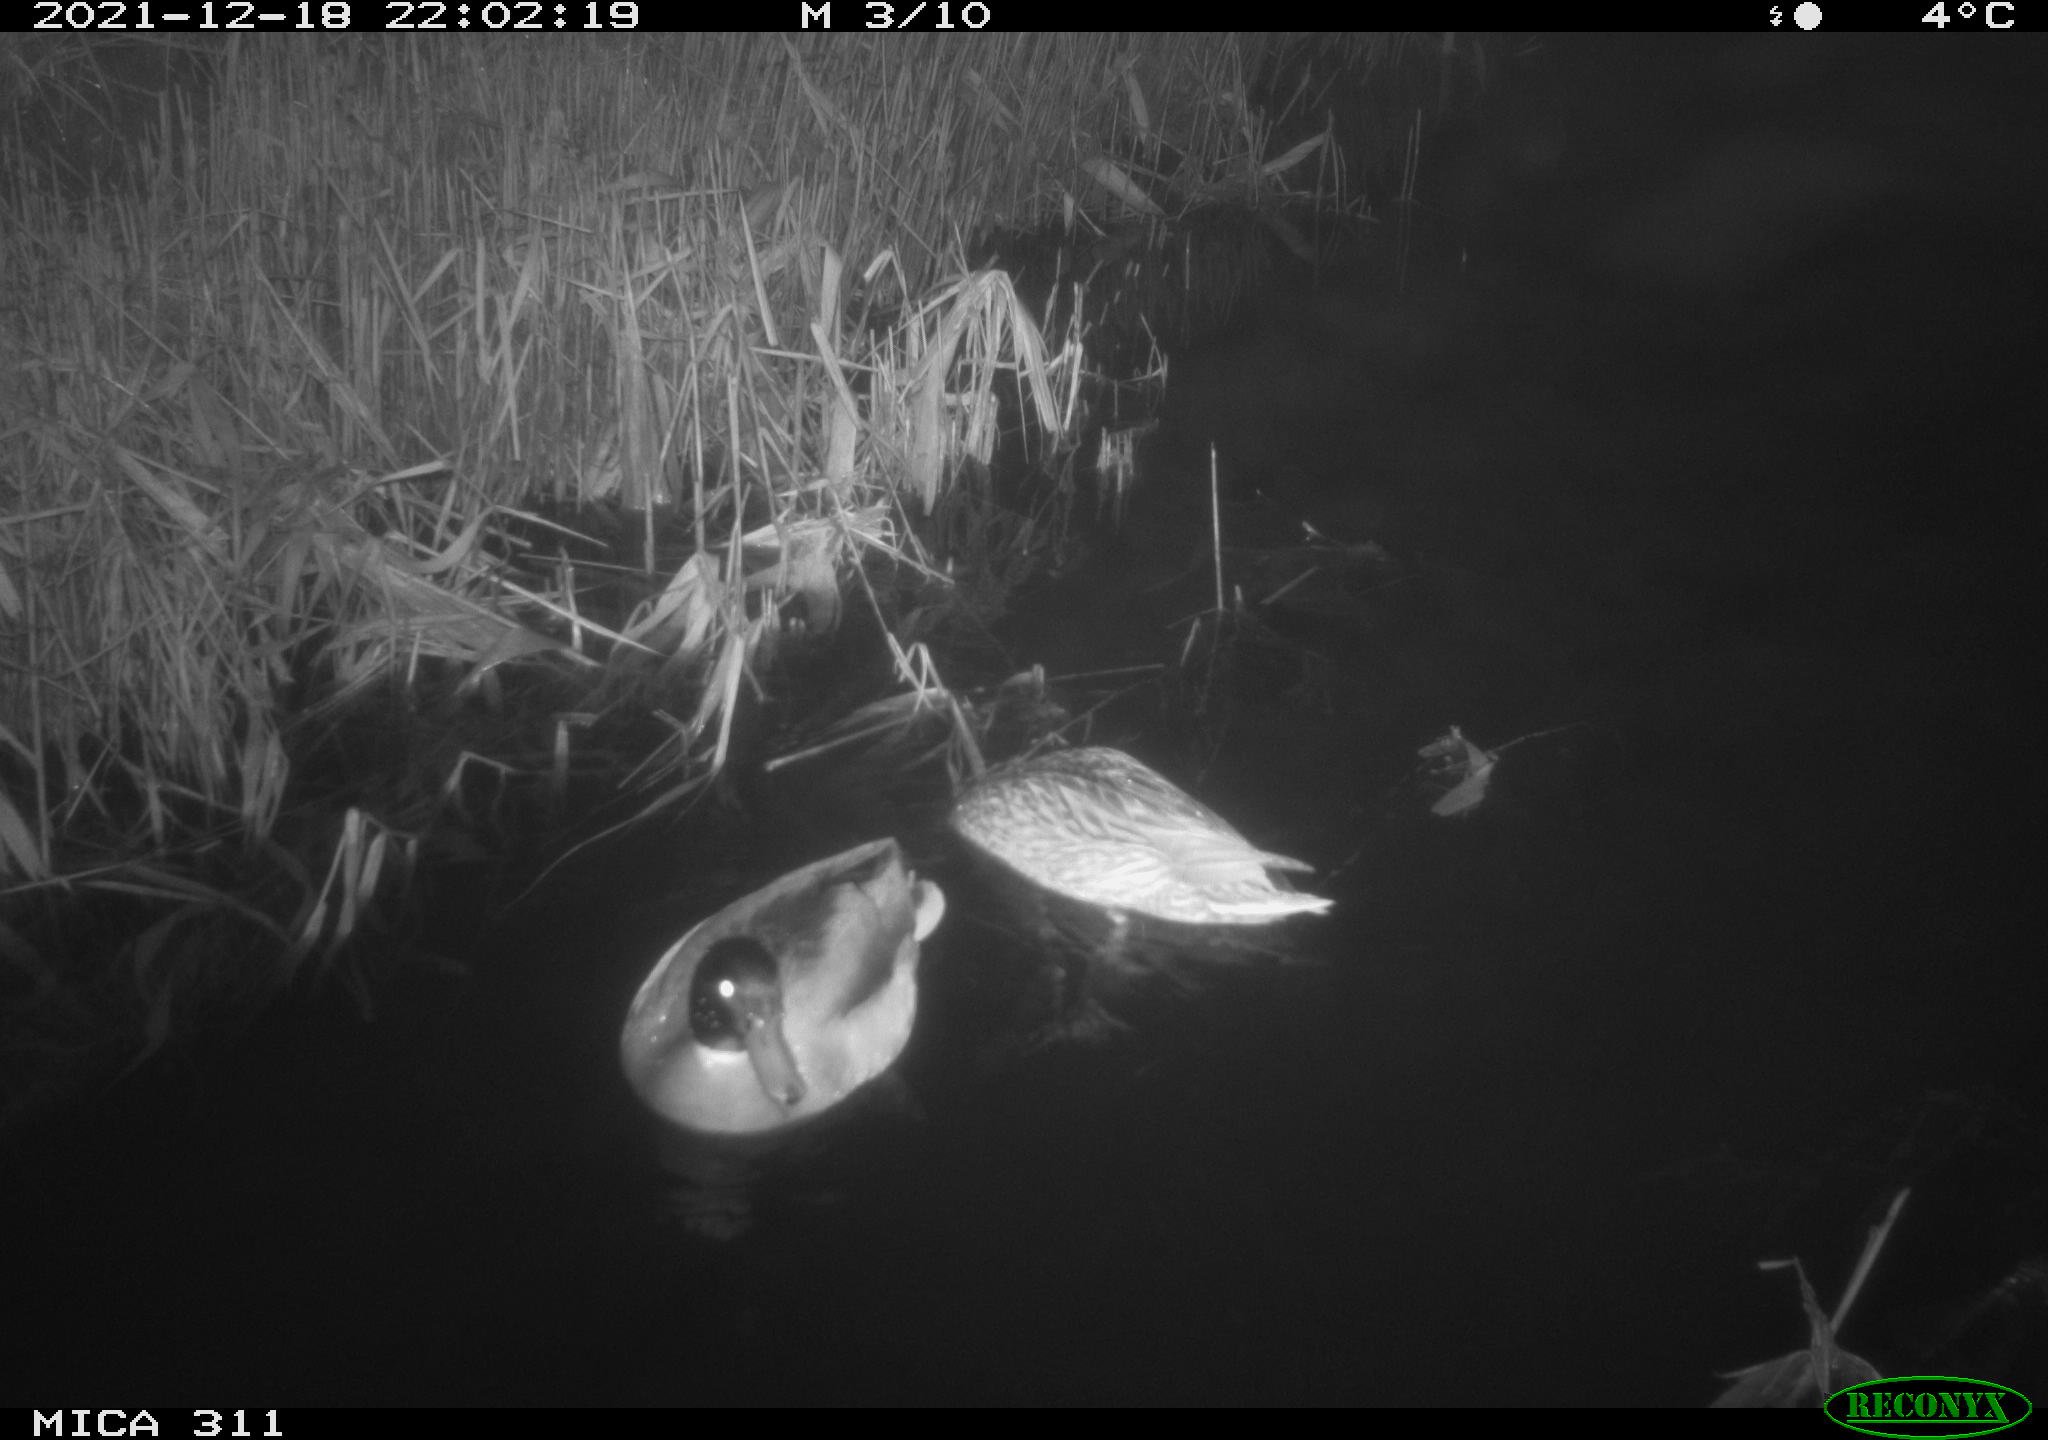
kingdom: Animalia
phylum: Chordata
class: Aves
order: Anseriformes
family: Anatidae
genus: Anas
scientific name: Anas platyrhynchos
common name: Mallard
